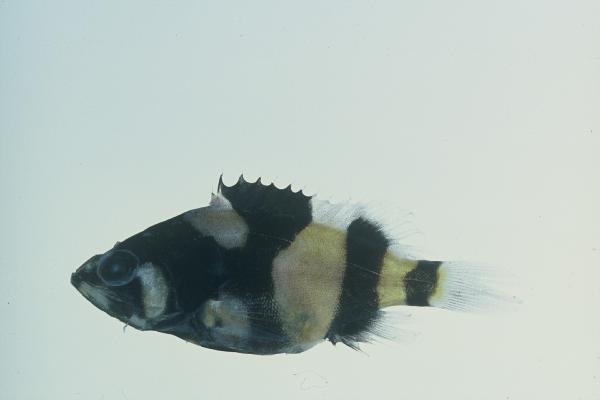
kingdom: Animalia
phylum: Chordata
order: Perciformes
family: Serranidae
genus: Epinephelus
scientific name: Epinephelus lanceolatus
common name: Giant grouper
